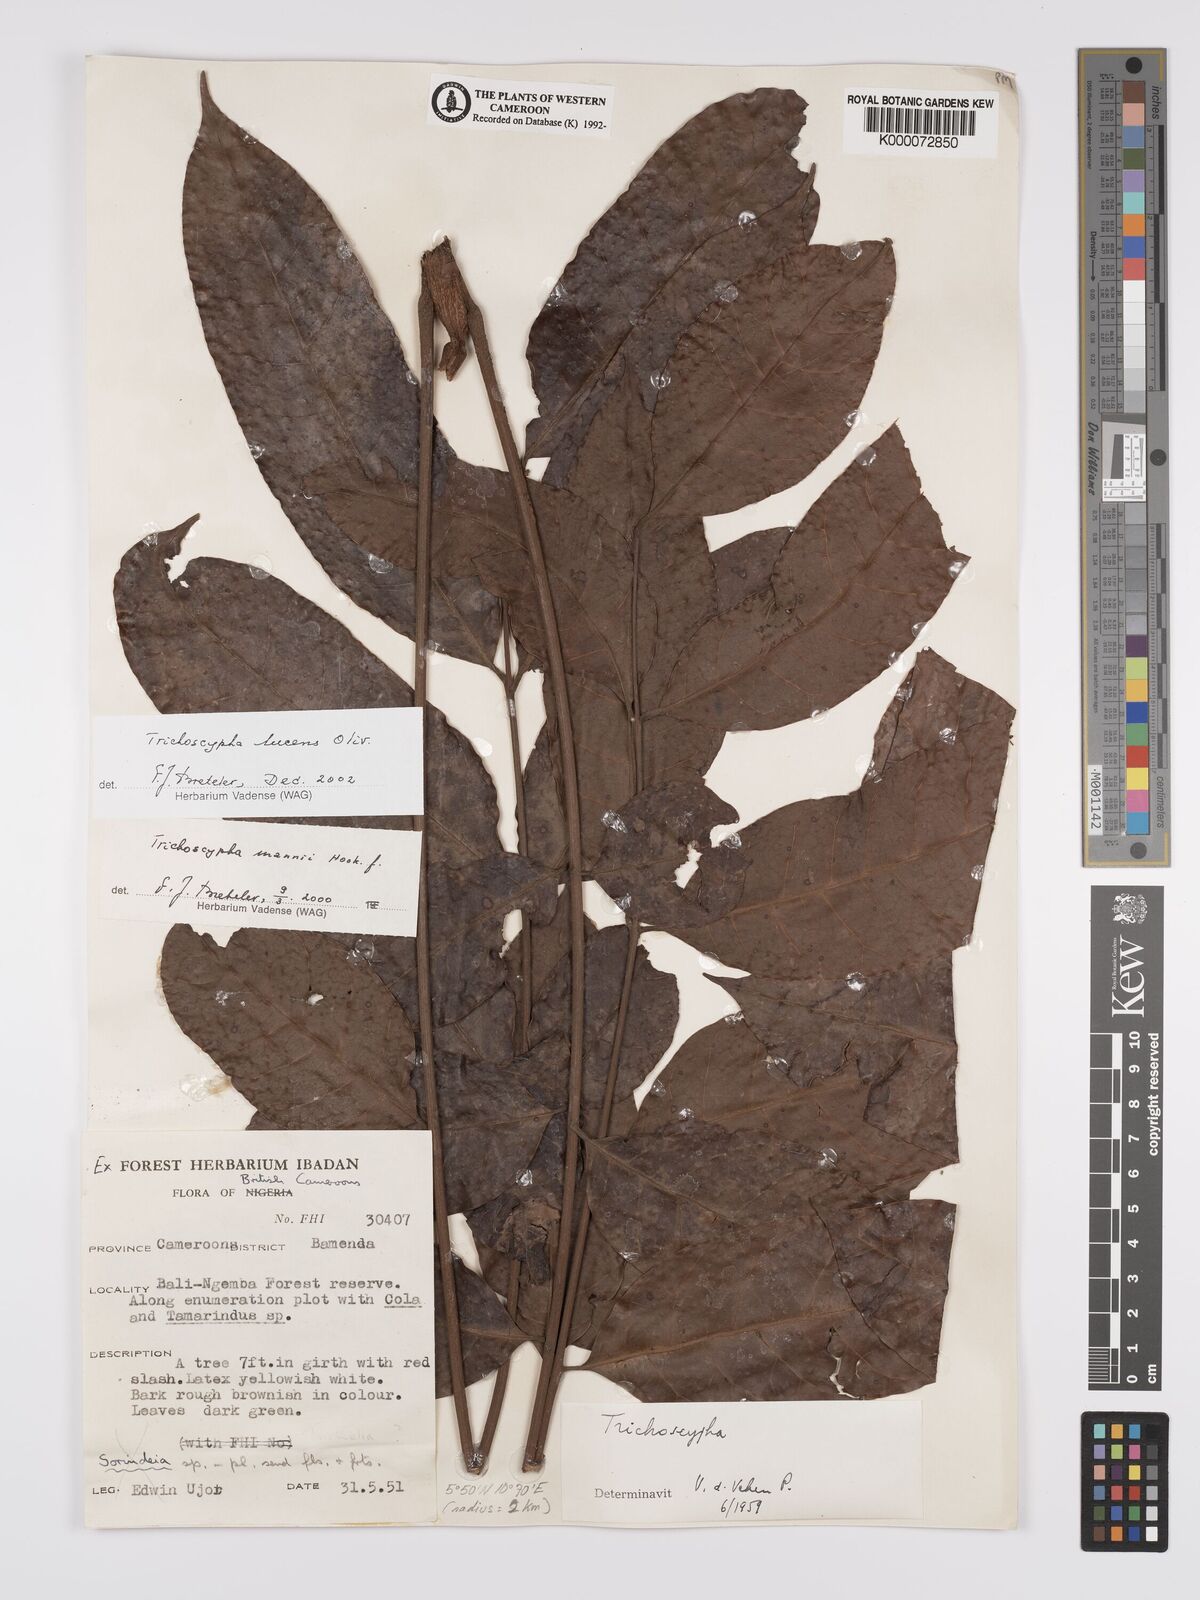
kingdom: Plantae
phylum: Tracheophyta
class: Magnoliopsida
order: Sapindales
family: Anacardiaceae
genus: Trichoscypha
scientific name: Trichoscypha lucens
